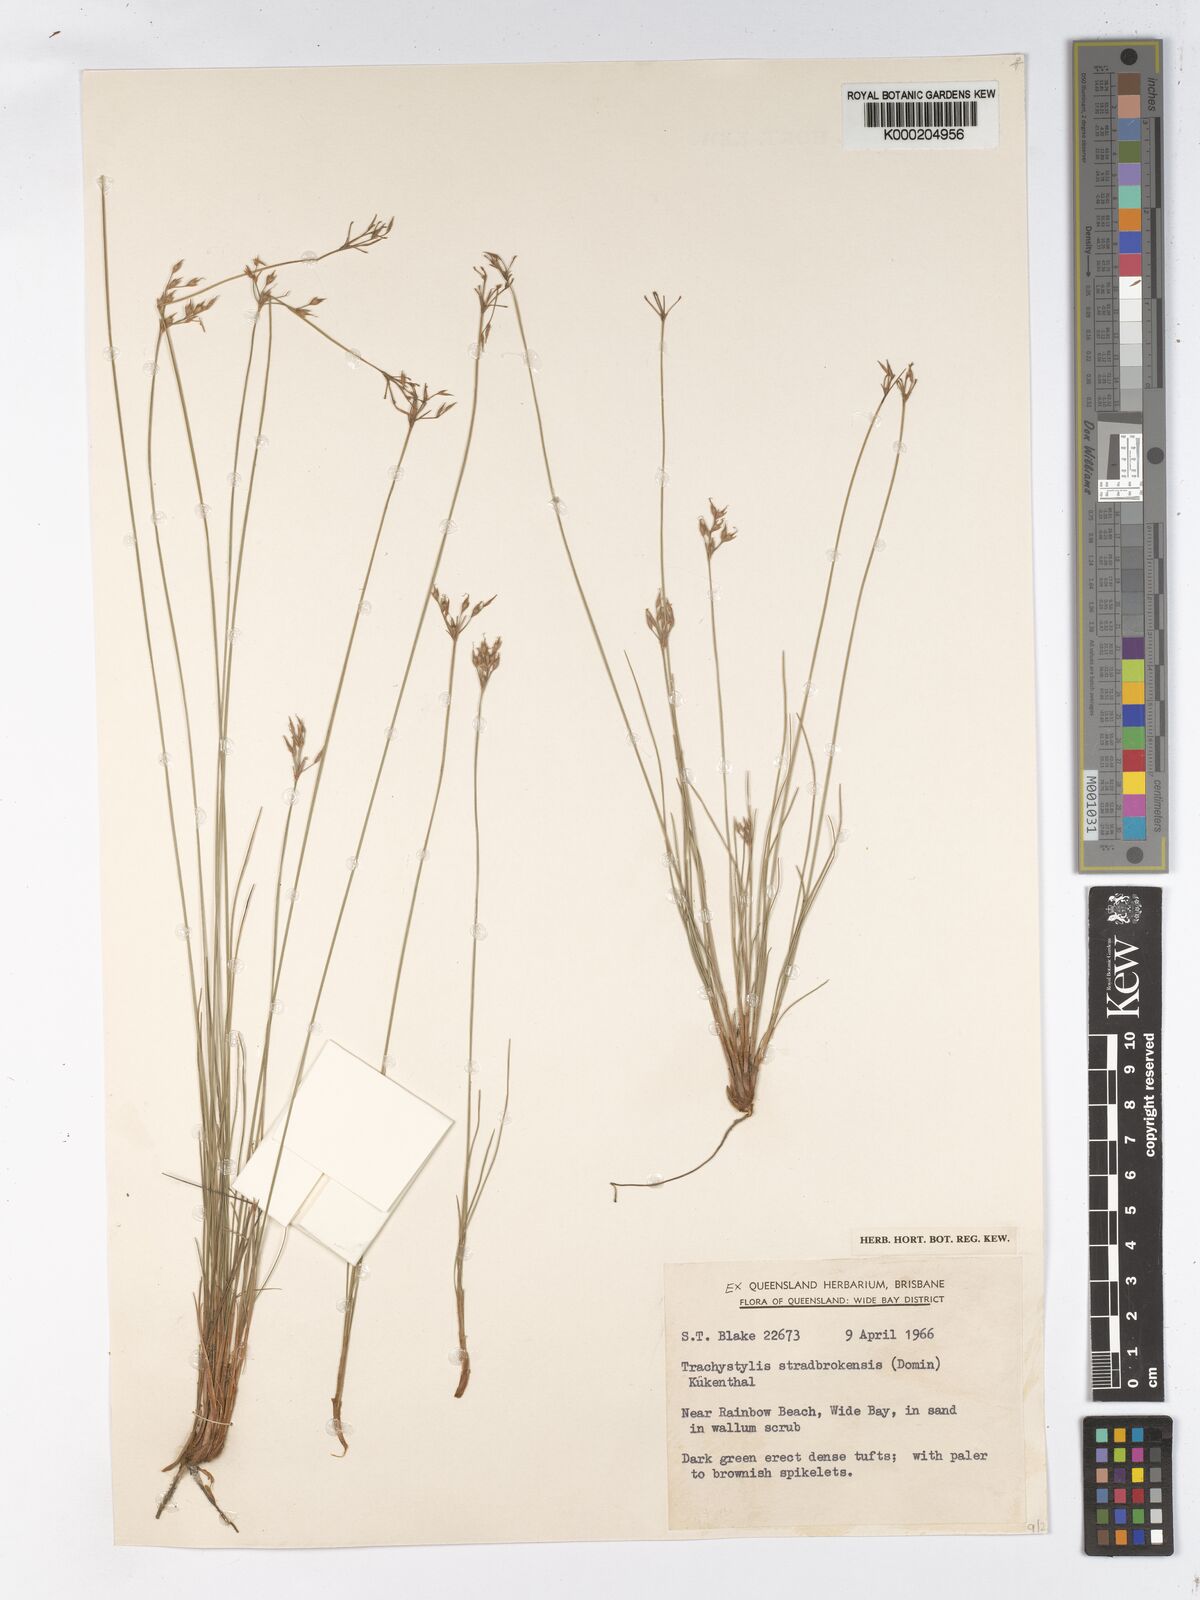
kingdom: Plantae
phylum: Tracheophyta
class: Liliopsida
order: Poales
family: Cyperaceae
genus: Trachystylis
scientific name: Trachystylis
